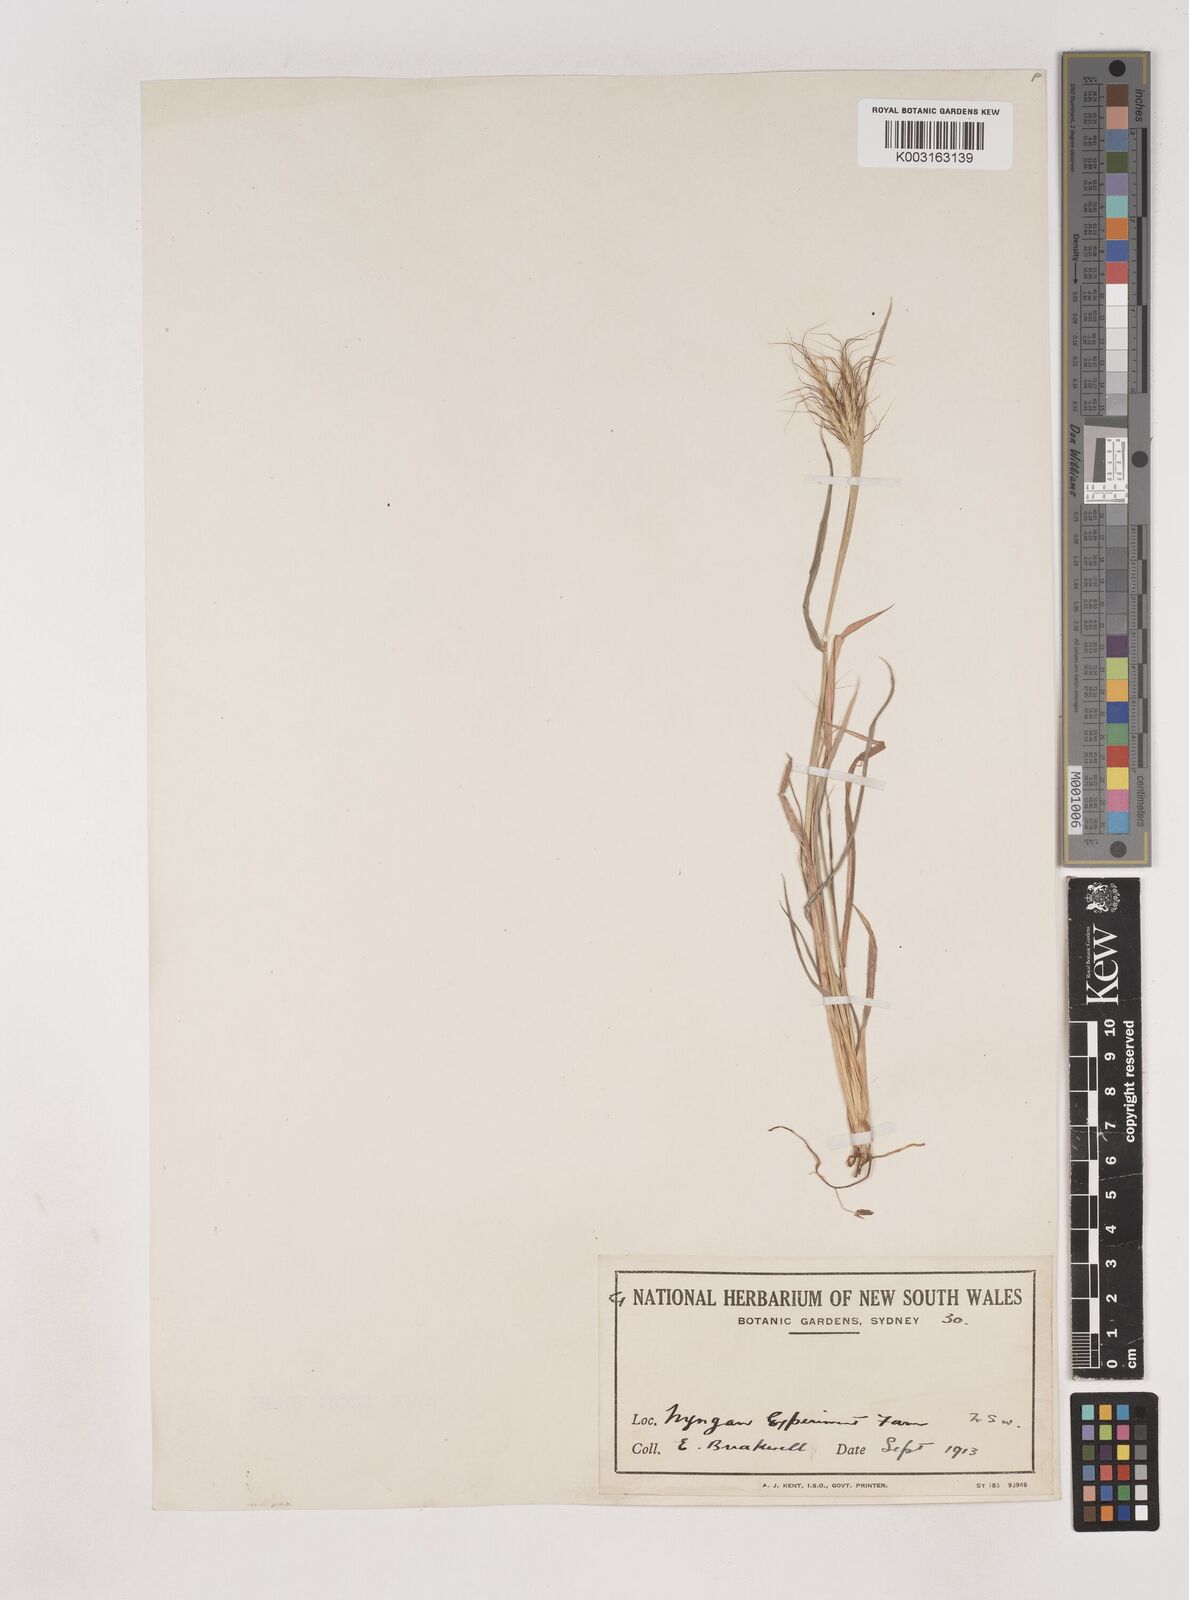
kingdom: Plantae
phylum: Tracheophyta
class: Liliopsida
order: Poales
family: Poaceae
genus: Dichanthium
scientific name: Dichanthium sericeum
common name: Silky bluestem
